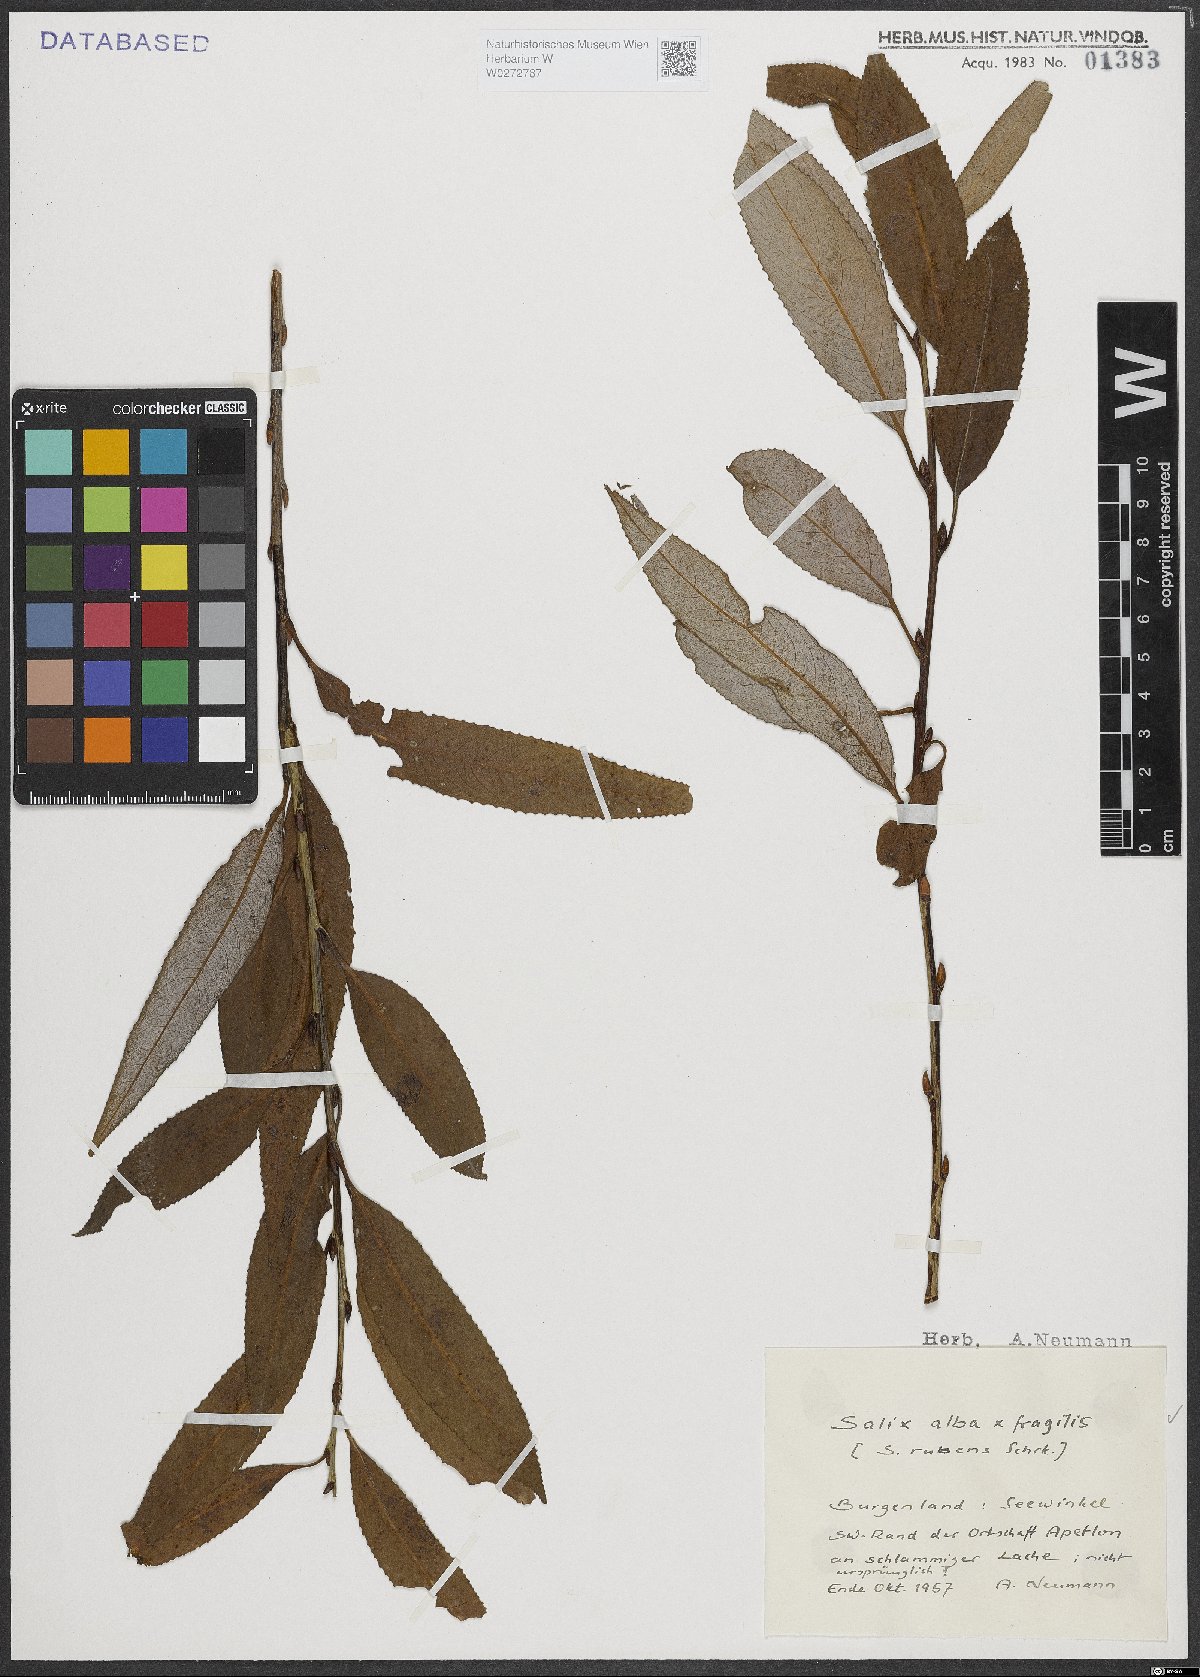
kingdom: Plantae
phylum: Tracheophyta
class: Magnoliopsida
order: Malpighiales
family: Salicaceae
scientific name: Salicaceae
